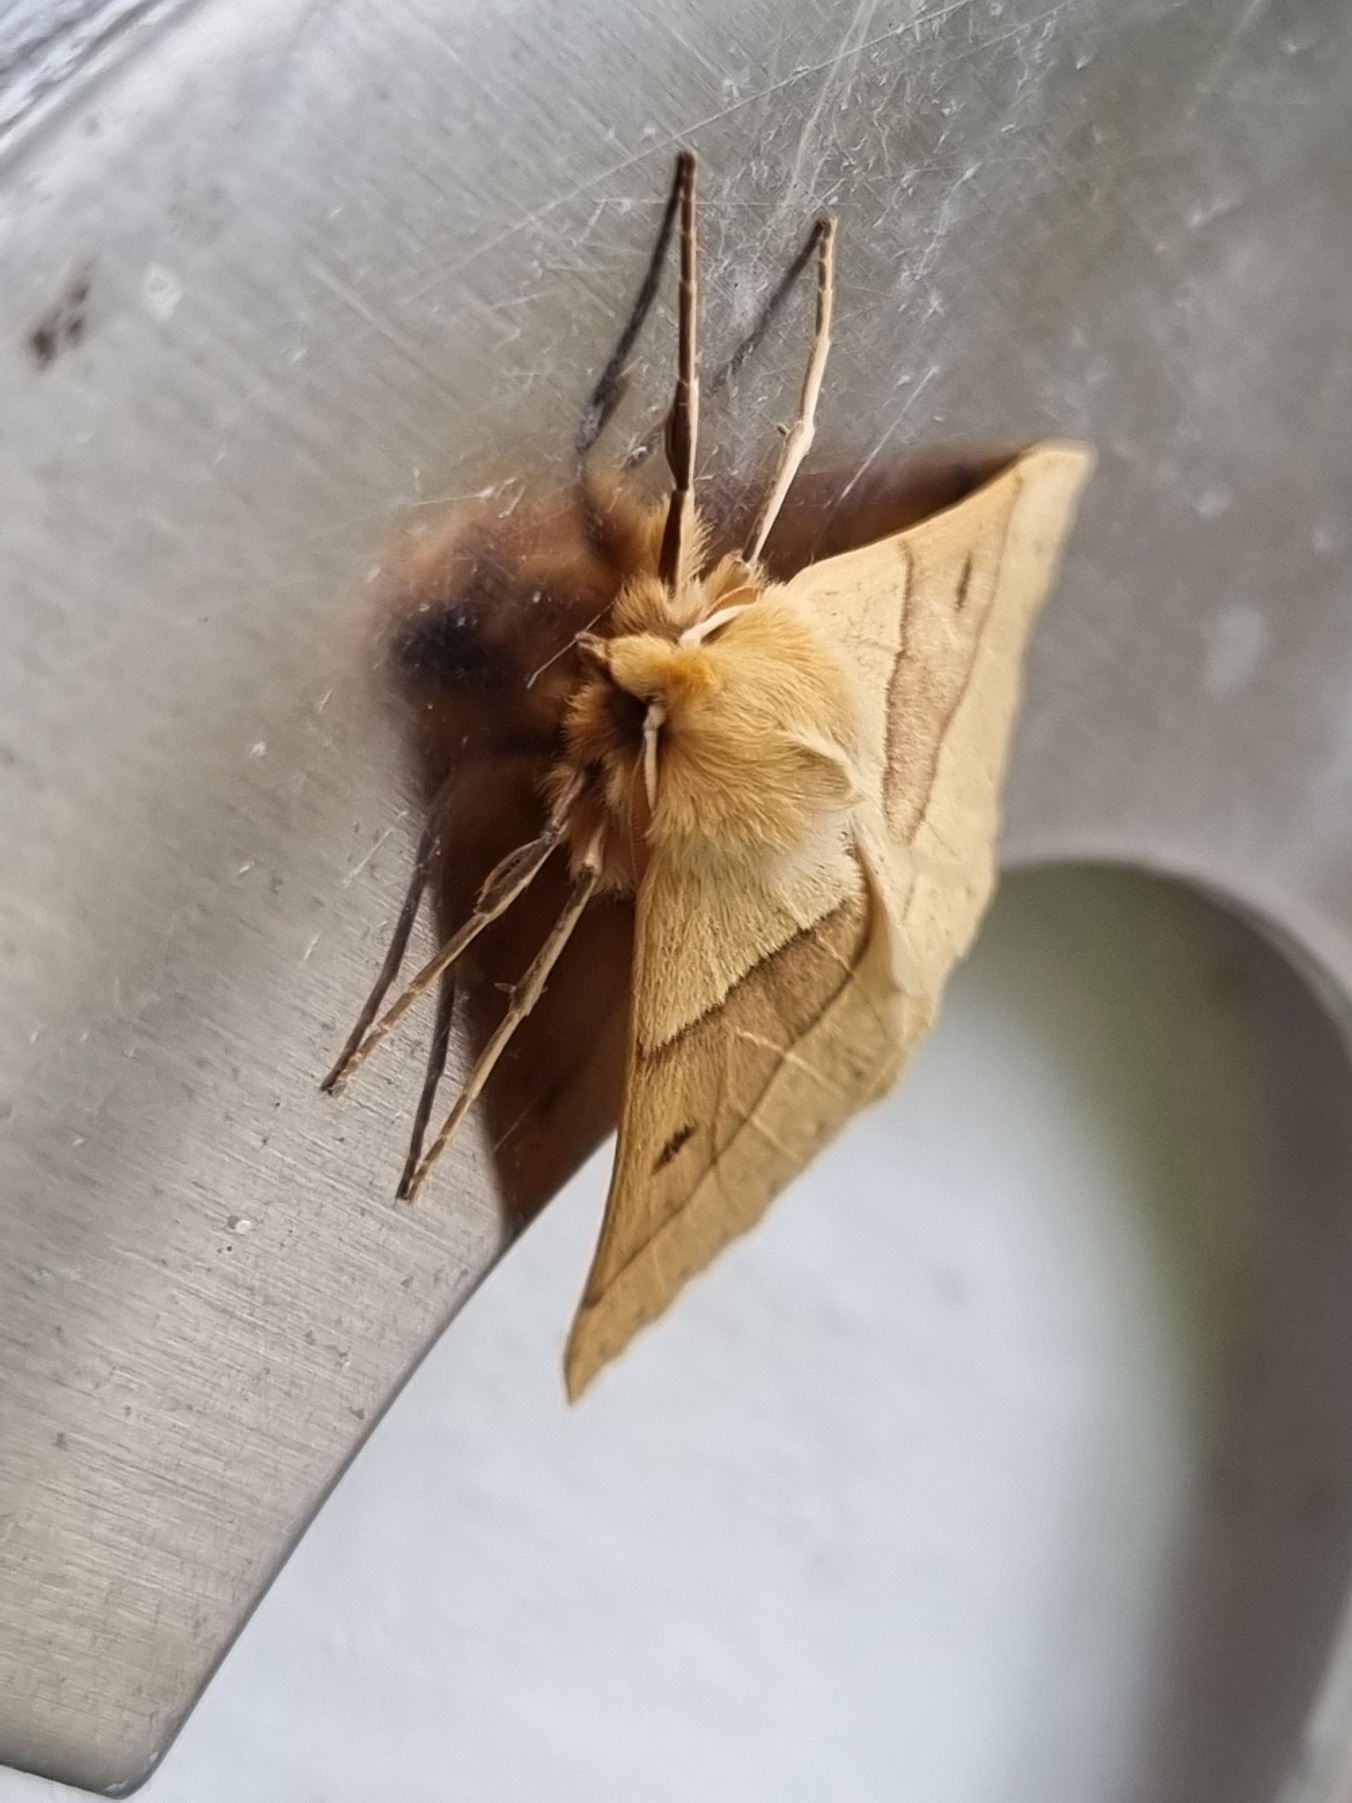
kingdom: Animalia
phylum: Arthropoda
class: Insecta
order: Lepidoptera
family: Geometridae
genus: Crocallis
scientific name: Crocallis elinguaria
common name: Okkergul rovmåler
